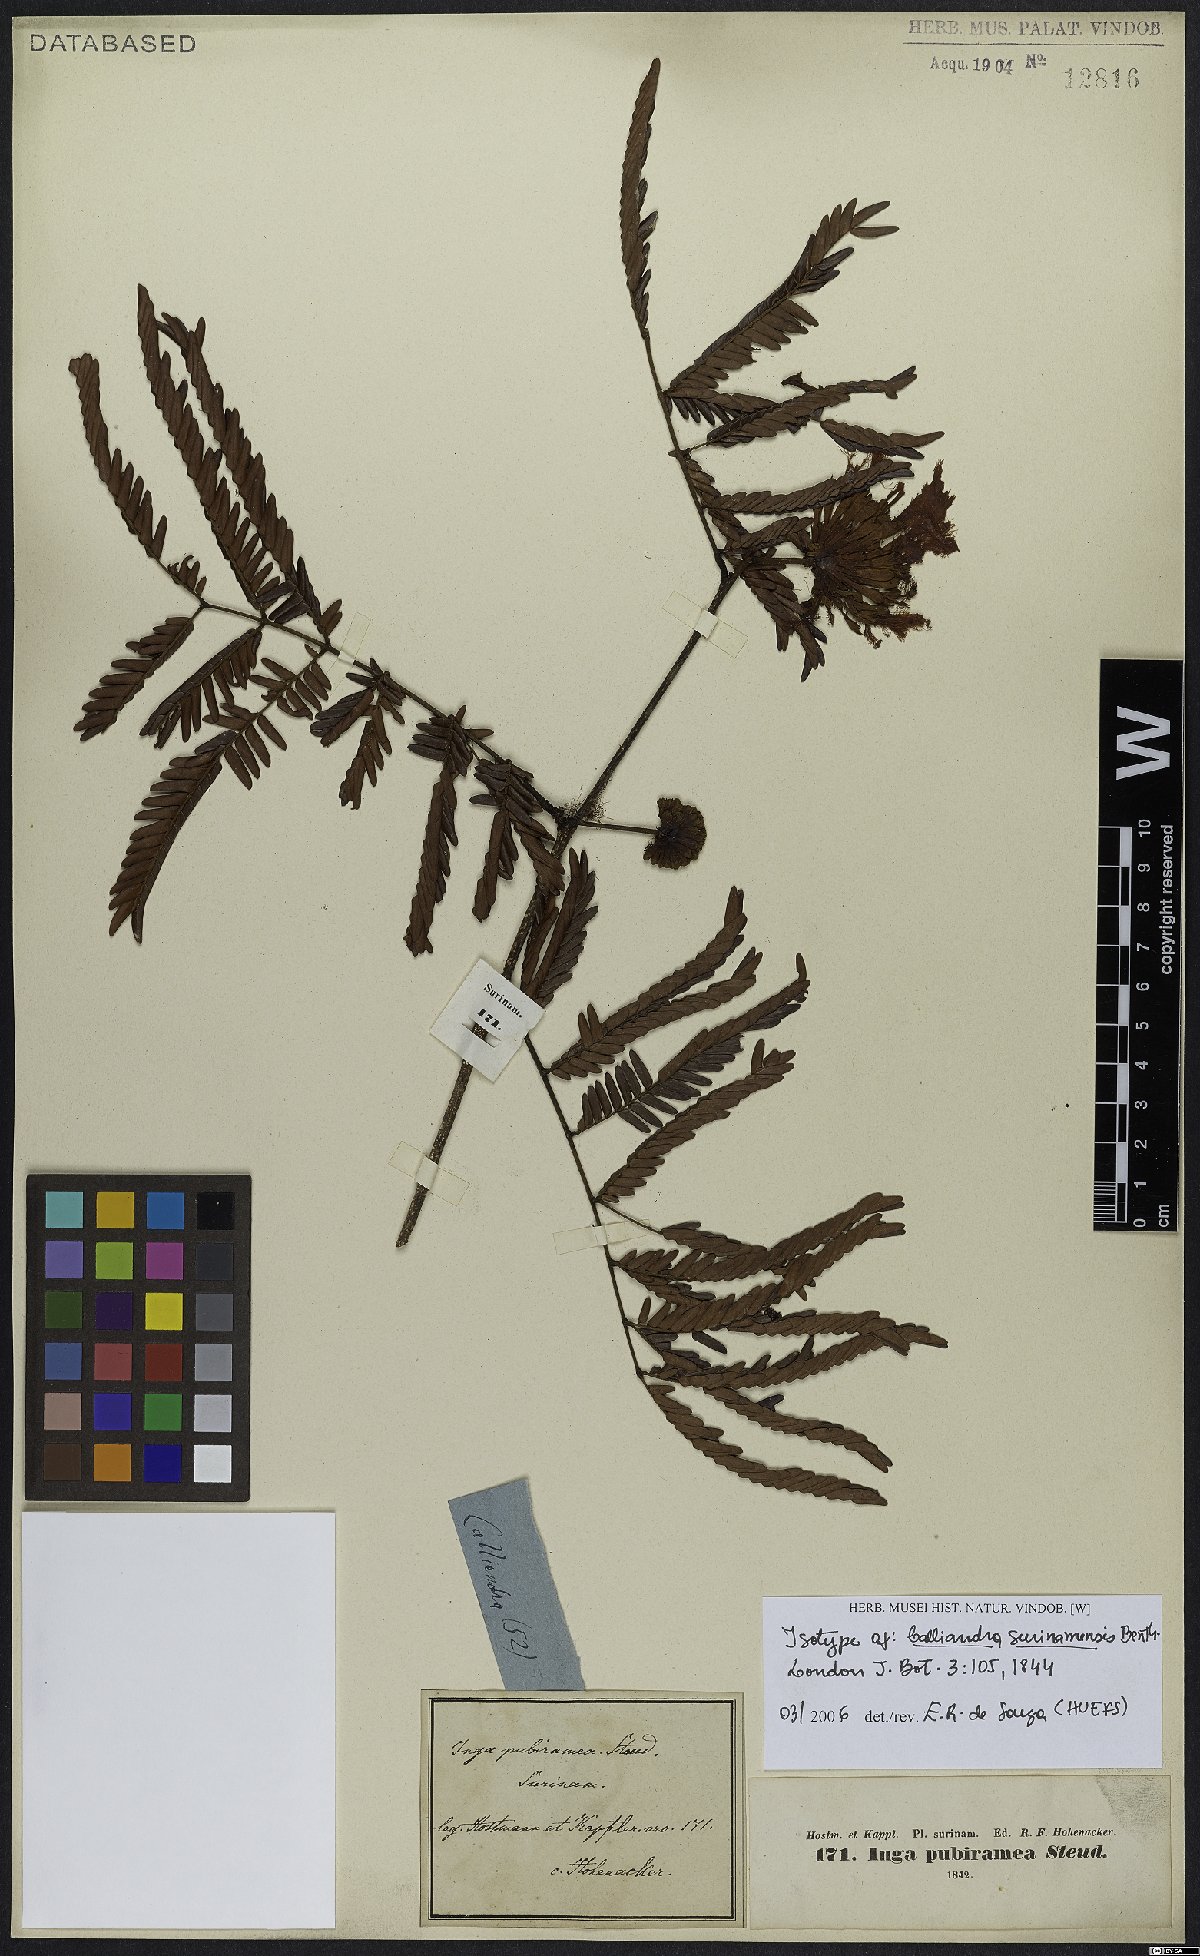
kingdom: Plantae
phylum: Tracheophyta
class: Magnoliopsida
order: Fabales
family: Fabaceae
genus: Calliandra
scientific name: Calliandra surinamensis
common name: Pink powder puff
